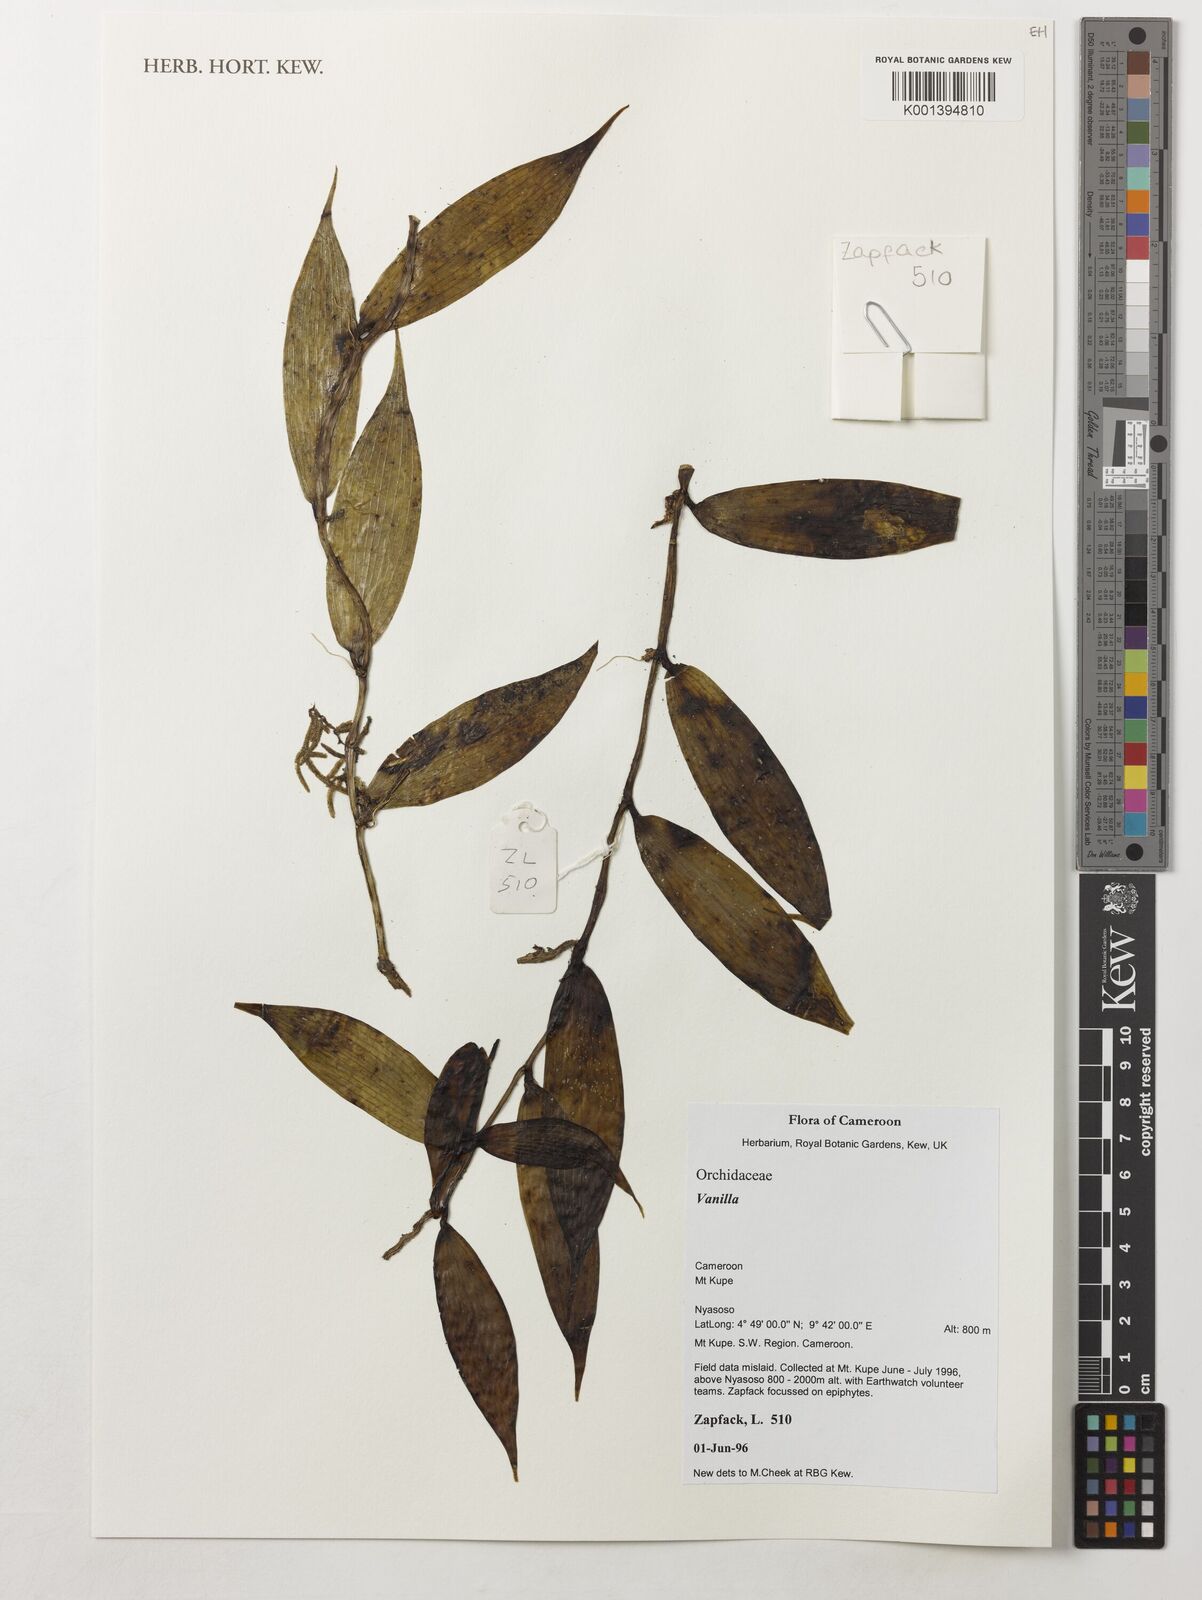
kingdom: Plantae
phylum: Tracheophyta
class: Liliopsida
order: Asparagales
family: Orchidaceae
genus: Vanilla
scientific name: Vanilla
